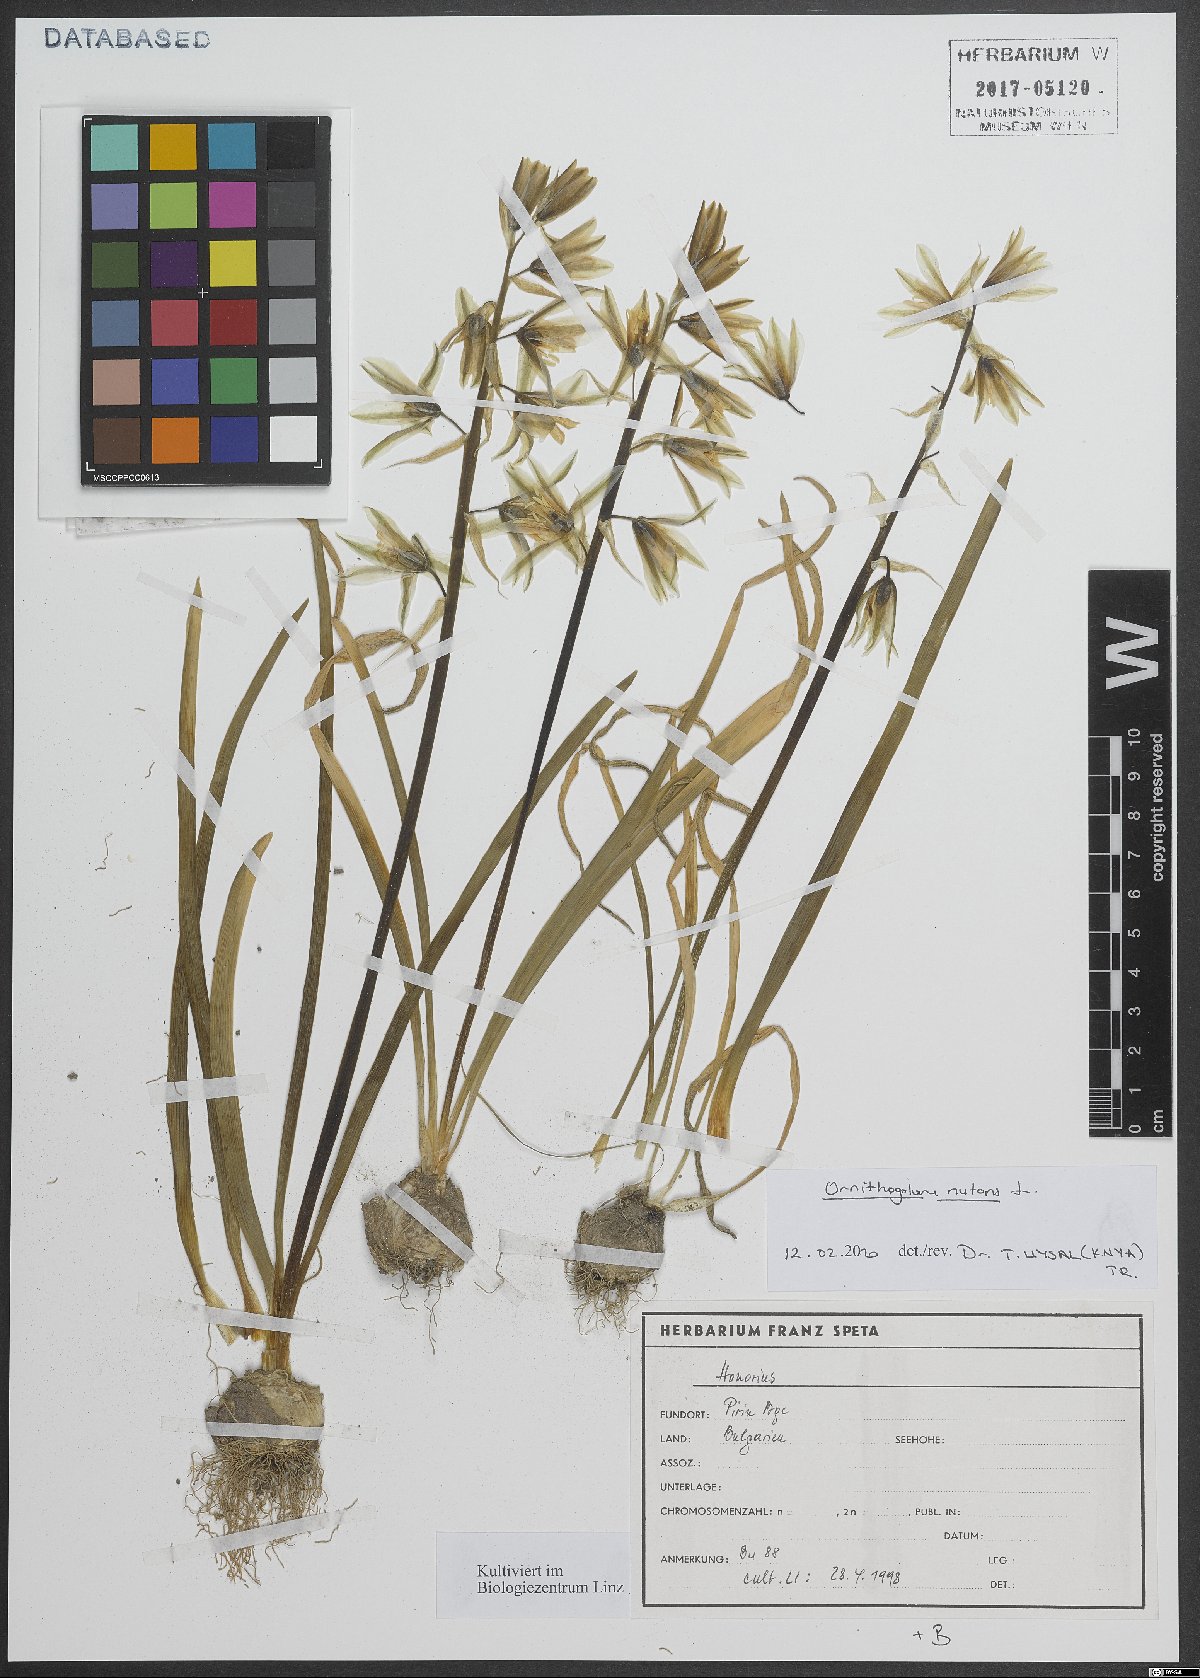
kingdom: Plantae
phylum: Tracheophyta
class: Liliopsida
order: Asparagales
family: Asparagaceae
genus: Ornithogalum
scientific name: Ornithogalum nutans
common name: Drooping star-of-bethlehem
